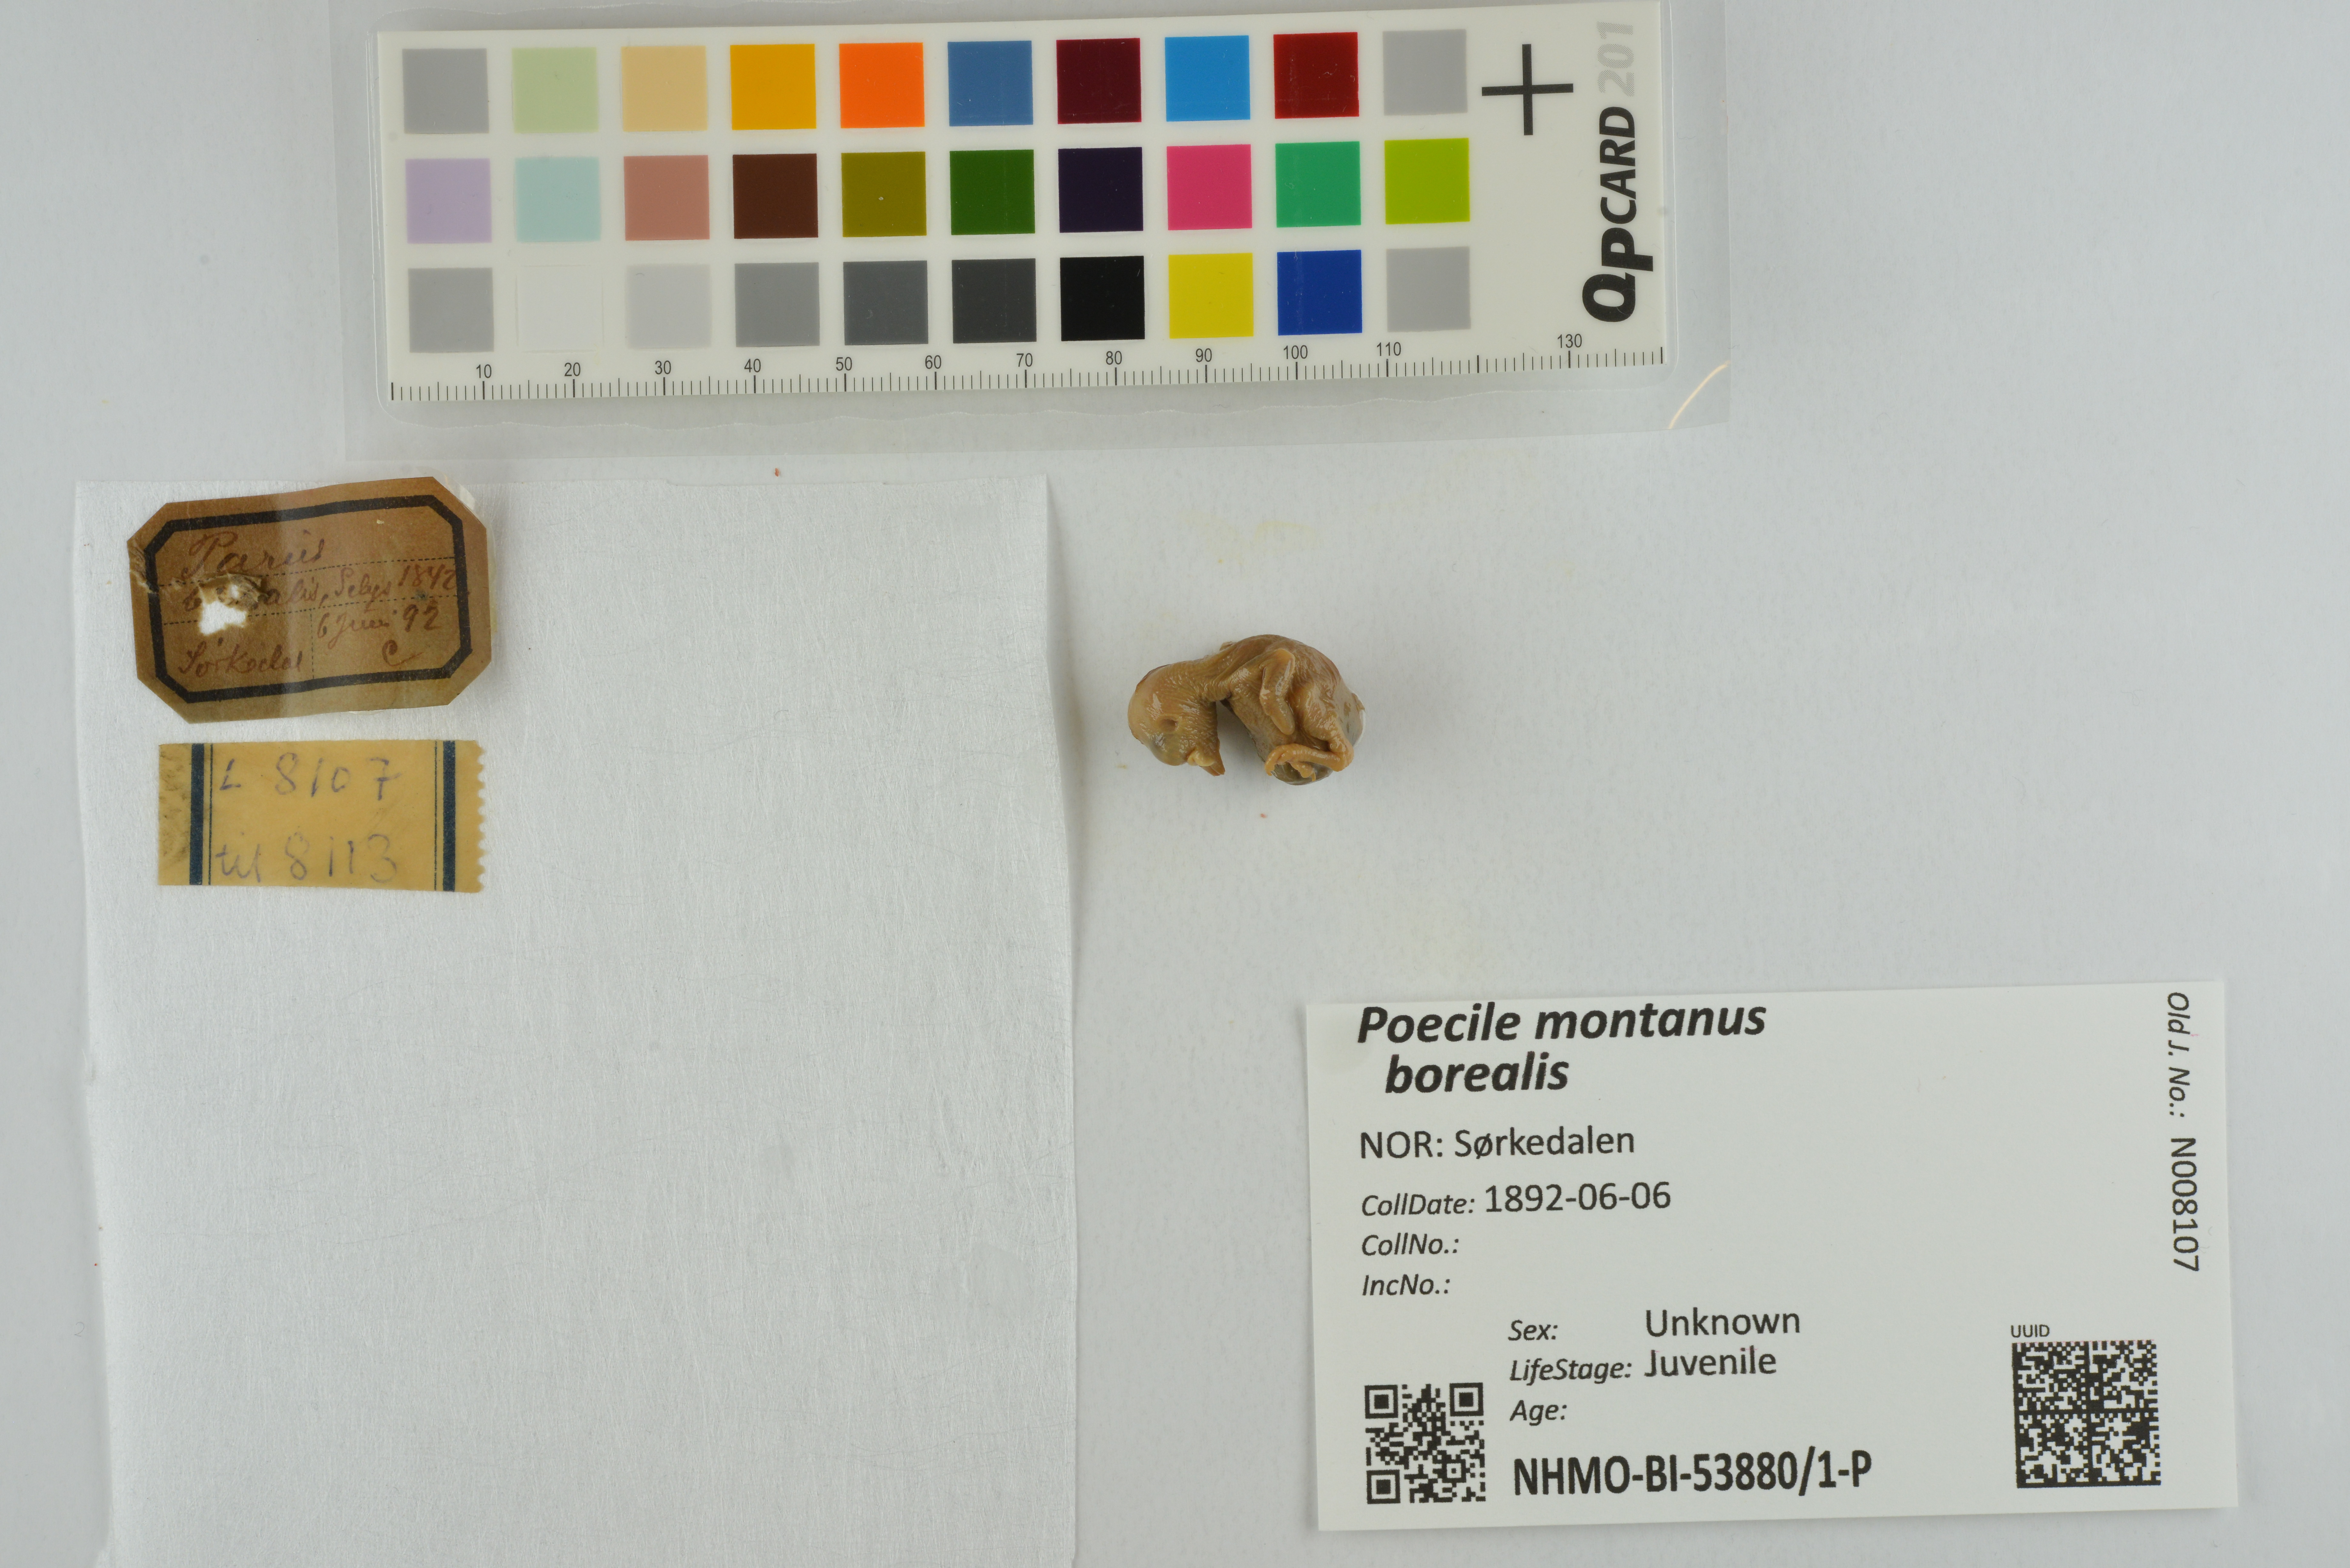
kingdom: Animalia
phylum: Chordata
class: Aves
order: Passeriformes
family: Paridae
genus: Poecile
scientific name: Poecile montanus
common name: Willow tit
